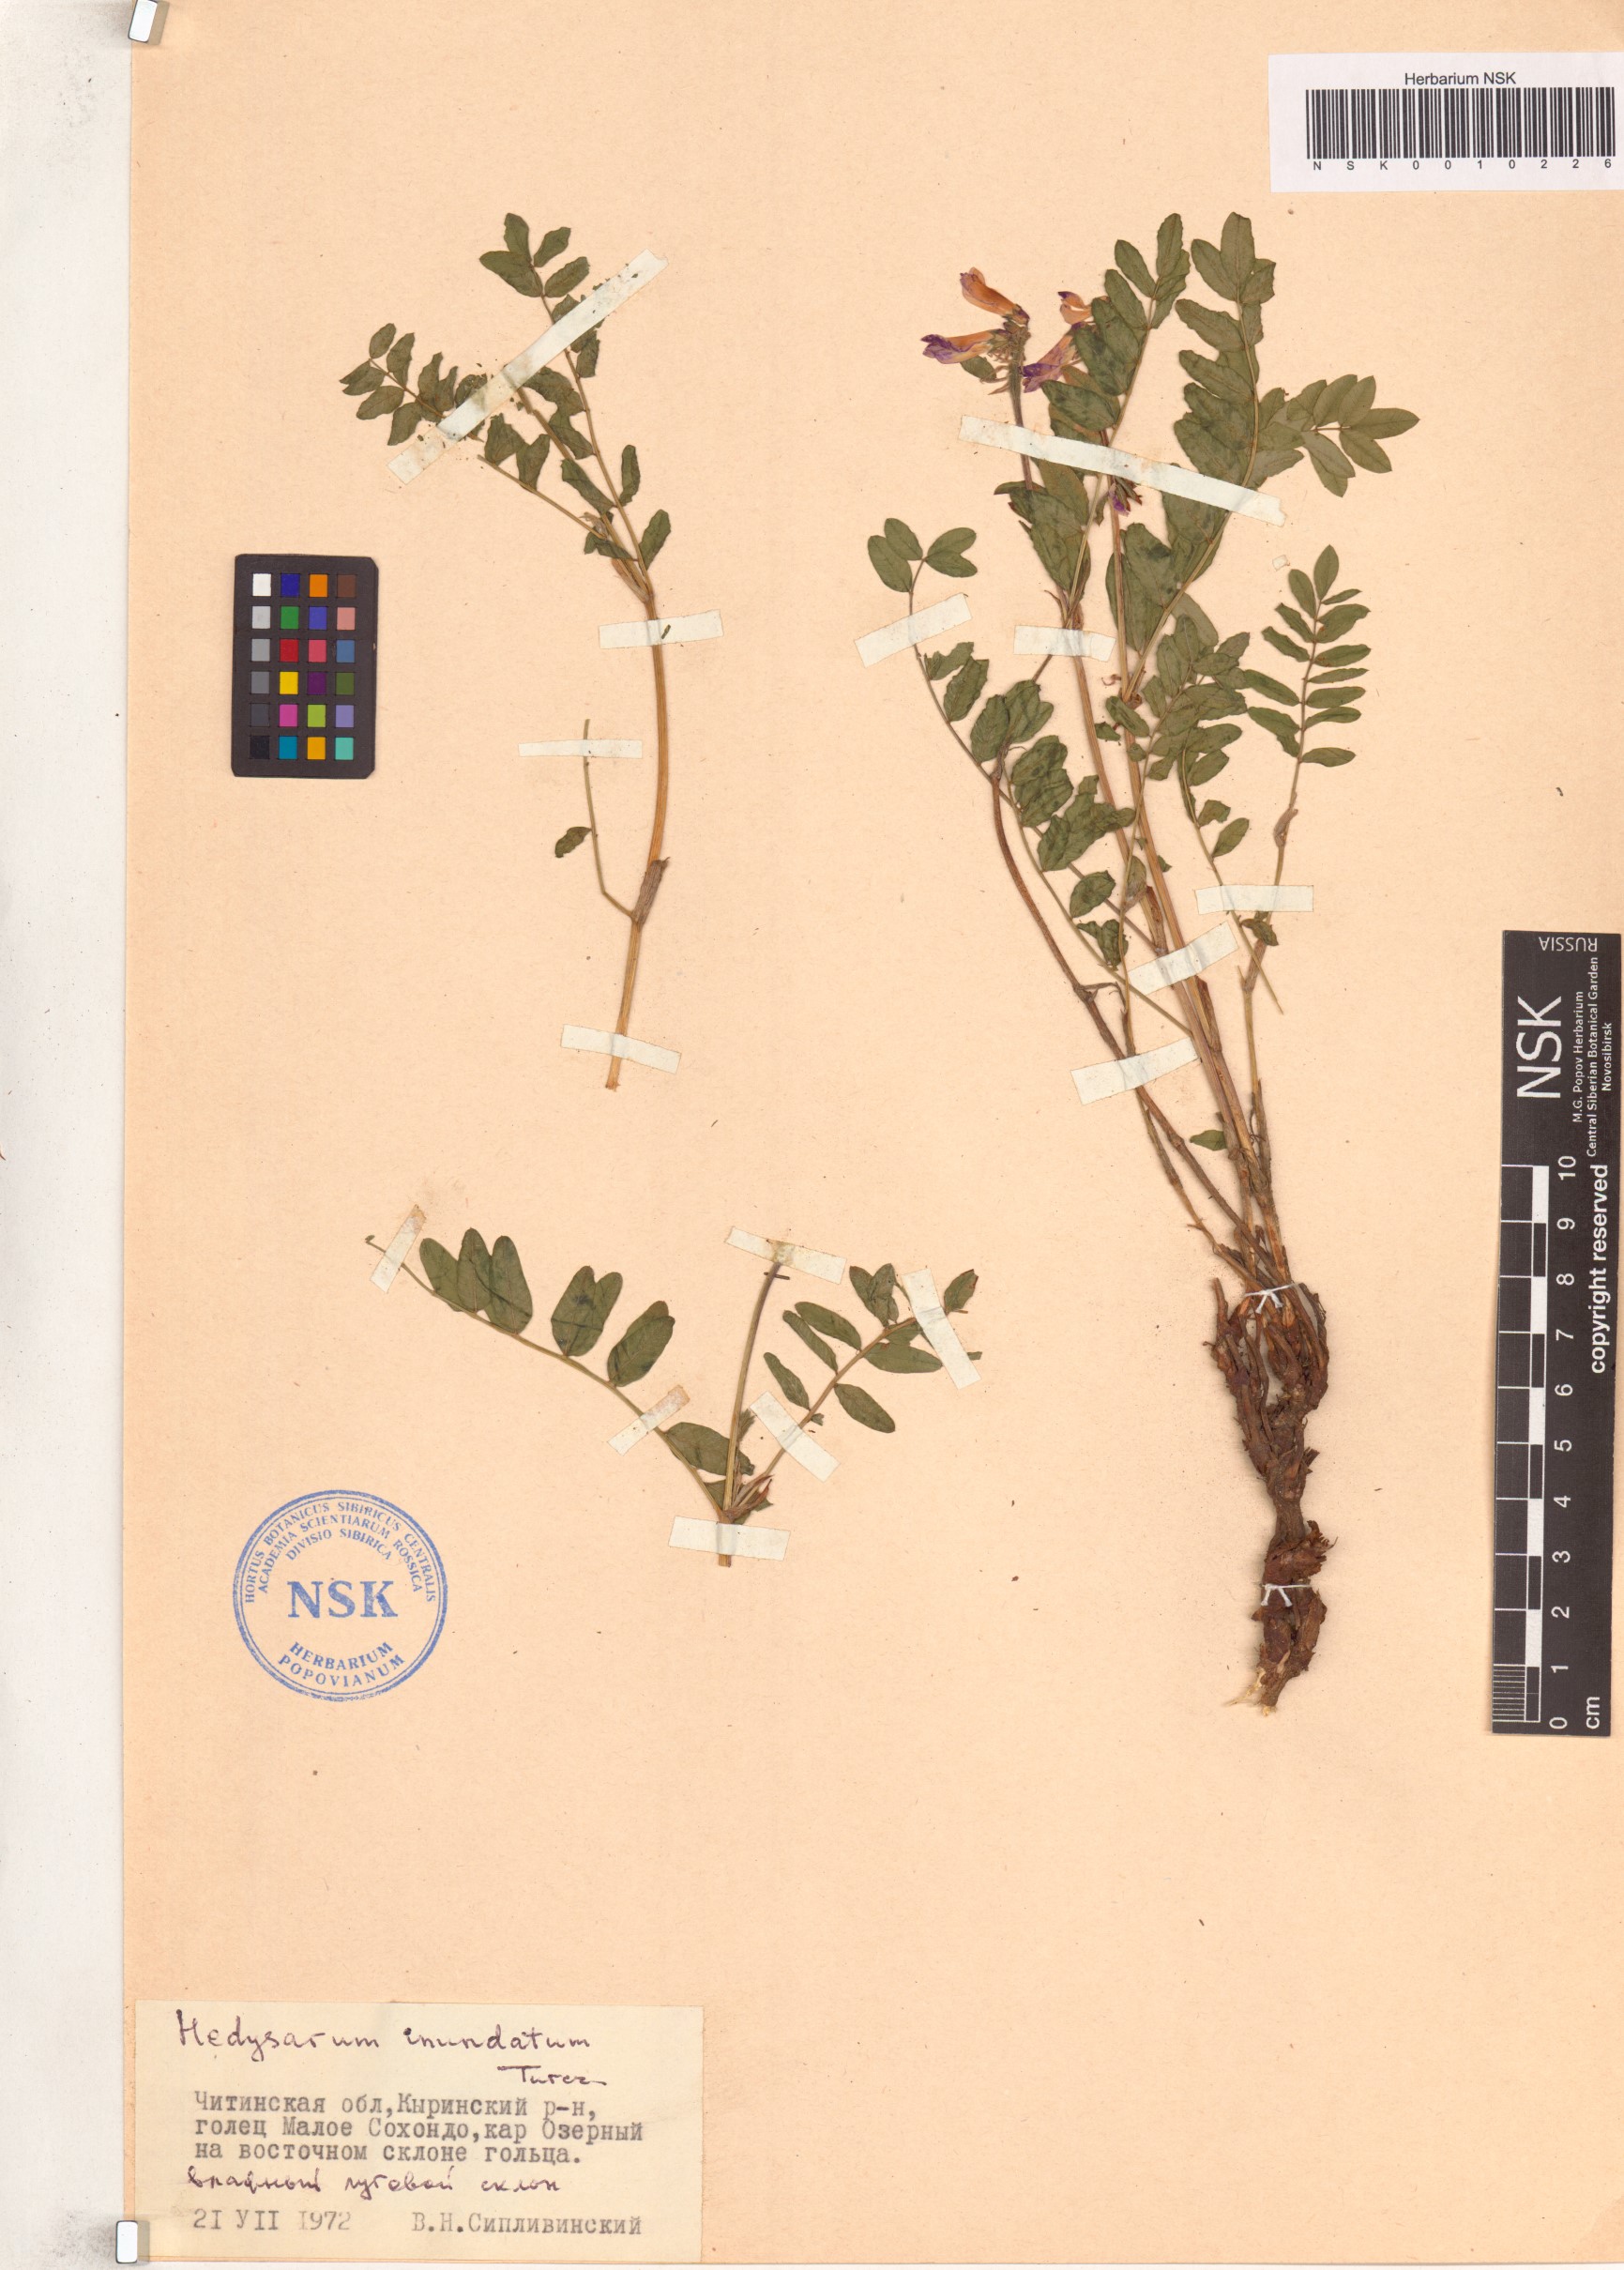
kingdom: Plantae
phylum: Tracheophyta
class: Magnoliopsida
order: Fabales
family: Fabaceae
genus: Hedysarum
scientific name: Hedysarum inundatum
